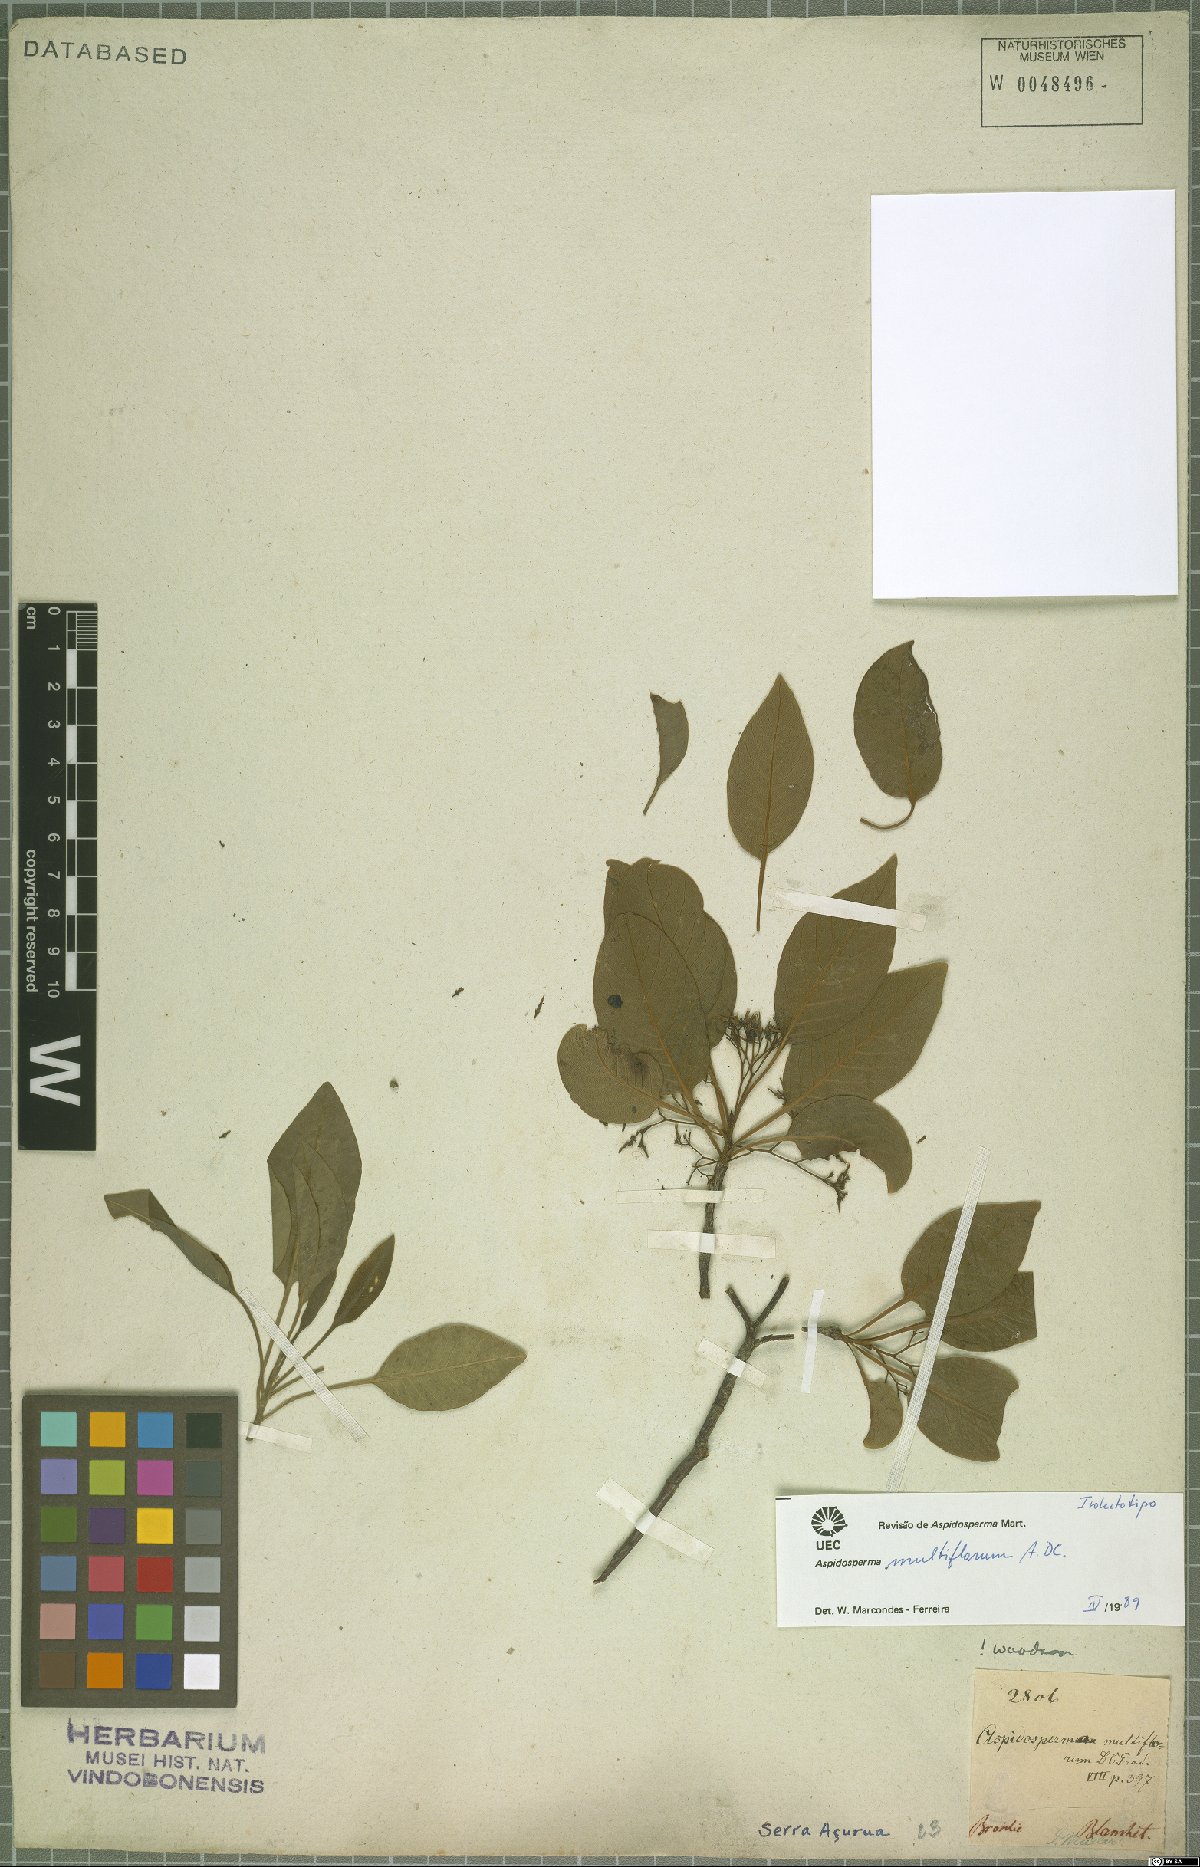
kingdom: Plantae
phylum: Tracheophyta
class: Magnoliopsida
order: Gentianales
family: Apocynaceae
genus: Aspidosperma
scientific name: Aspidosperma multiflorum
